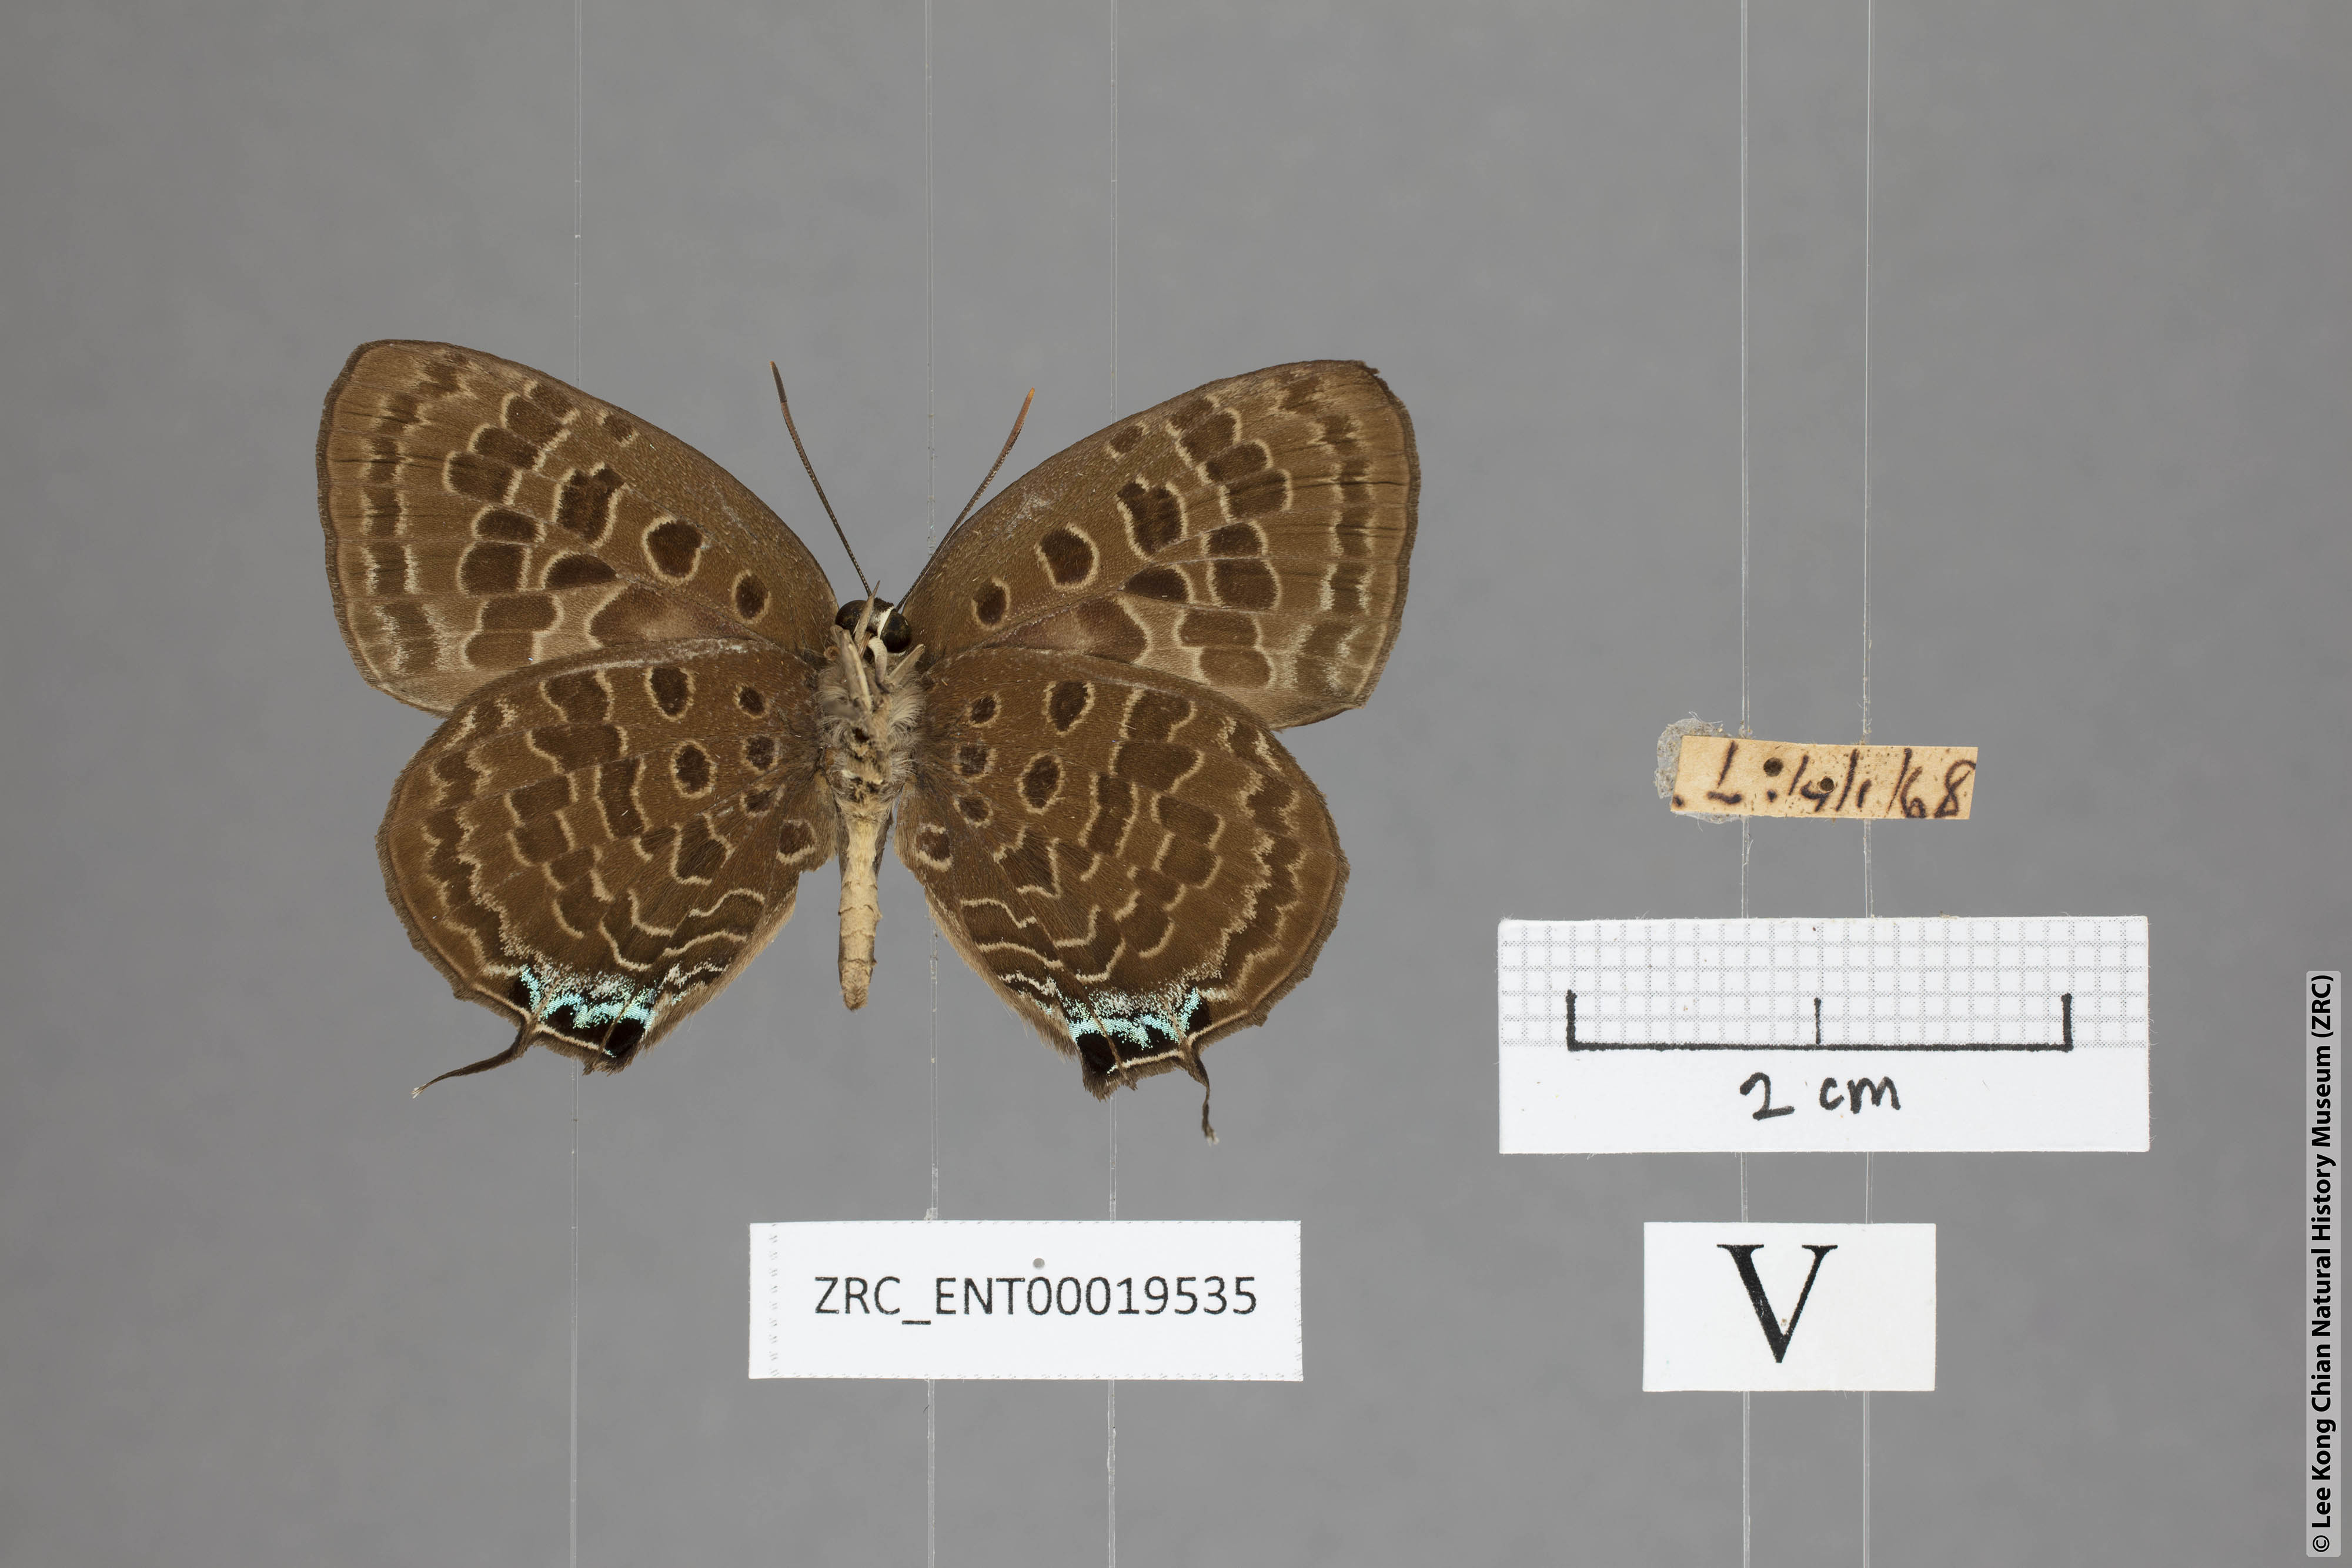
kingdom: Animalia
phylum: Arthropoda
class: Insecta
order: Lepidoptera
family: Lycaenidae
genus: Arhopala
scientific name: Arhopala horsfieldi
